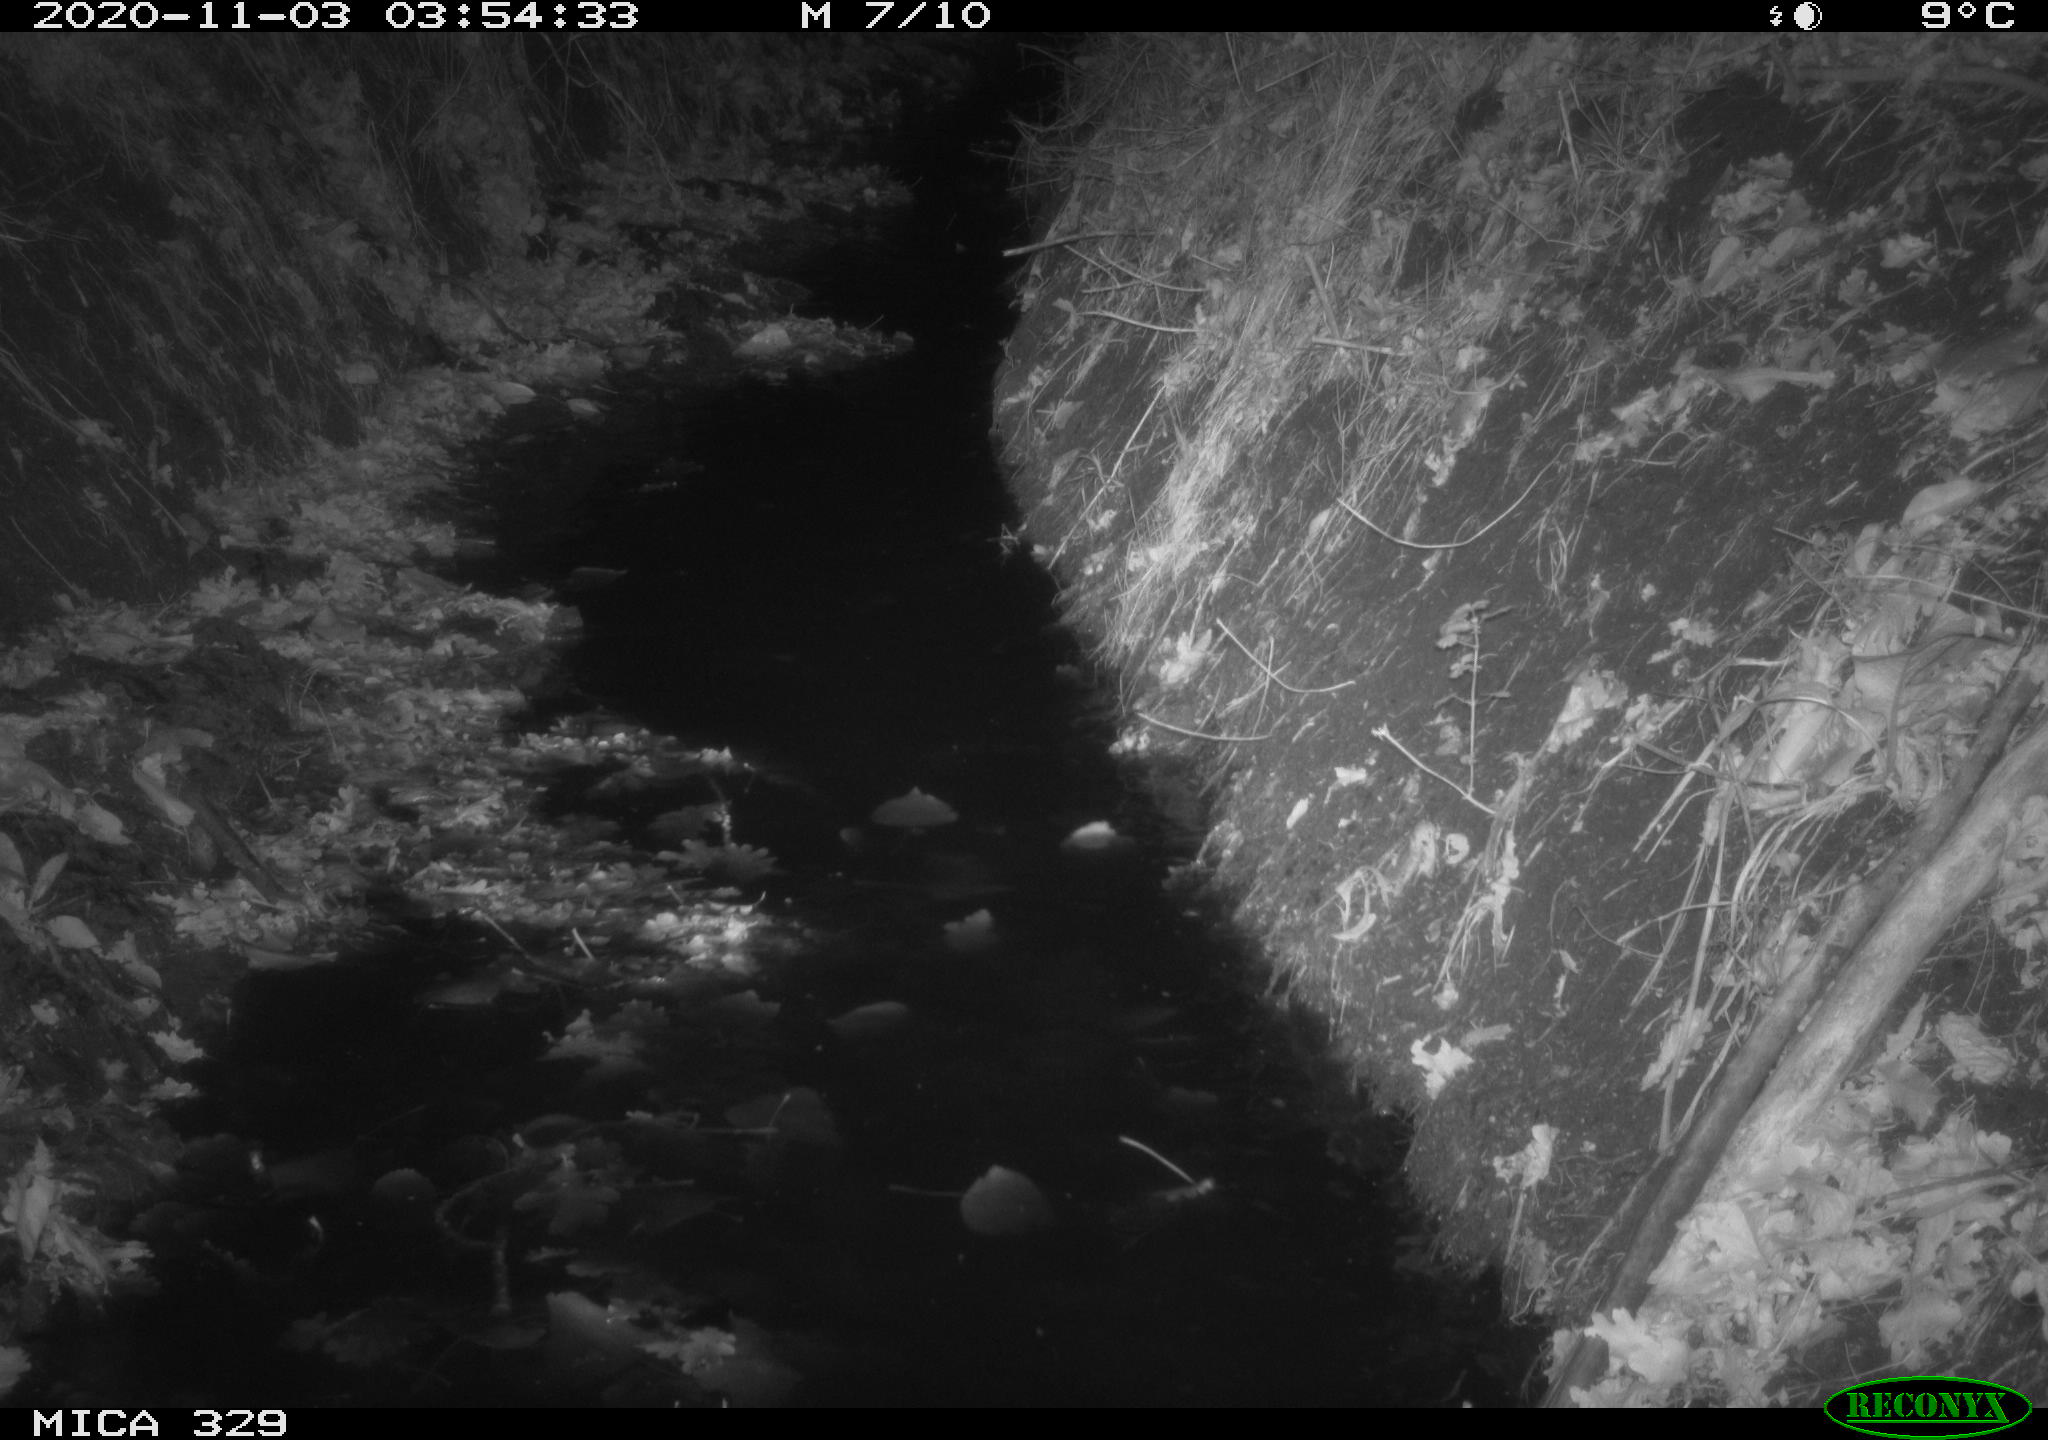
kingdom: Animalia
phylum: Chordata
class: Mammalia
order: Rodentia
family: Cricetidae
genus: Ondatra
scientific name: Ondatra zibethicus
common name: Muskrat
